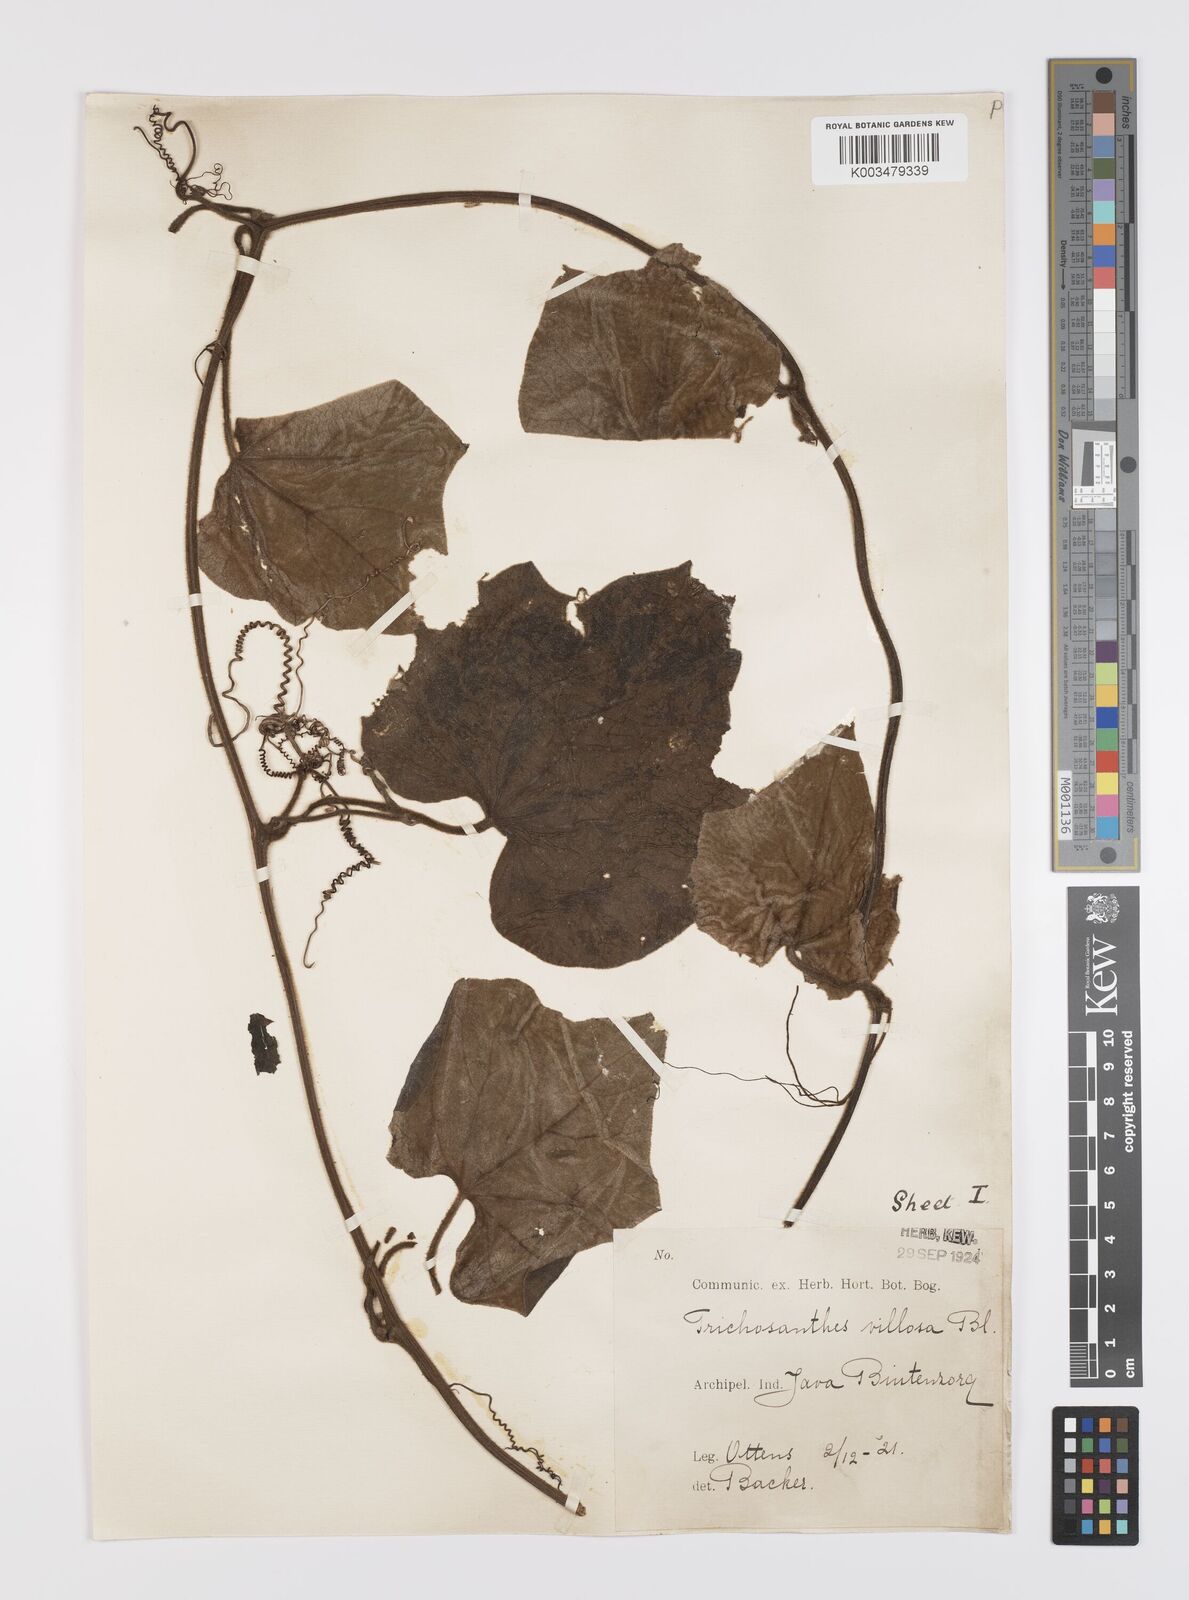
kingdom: Plantae
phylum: Tracheophyta
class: Magnoliopsida
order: Cucurbitales
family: Cucurbitaceae
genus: Trichosanthes
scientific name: Trichosanthes villosa
